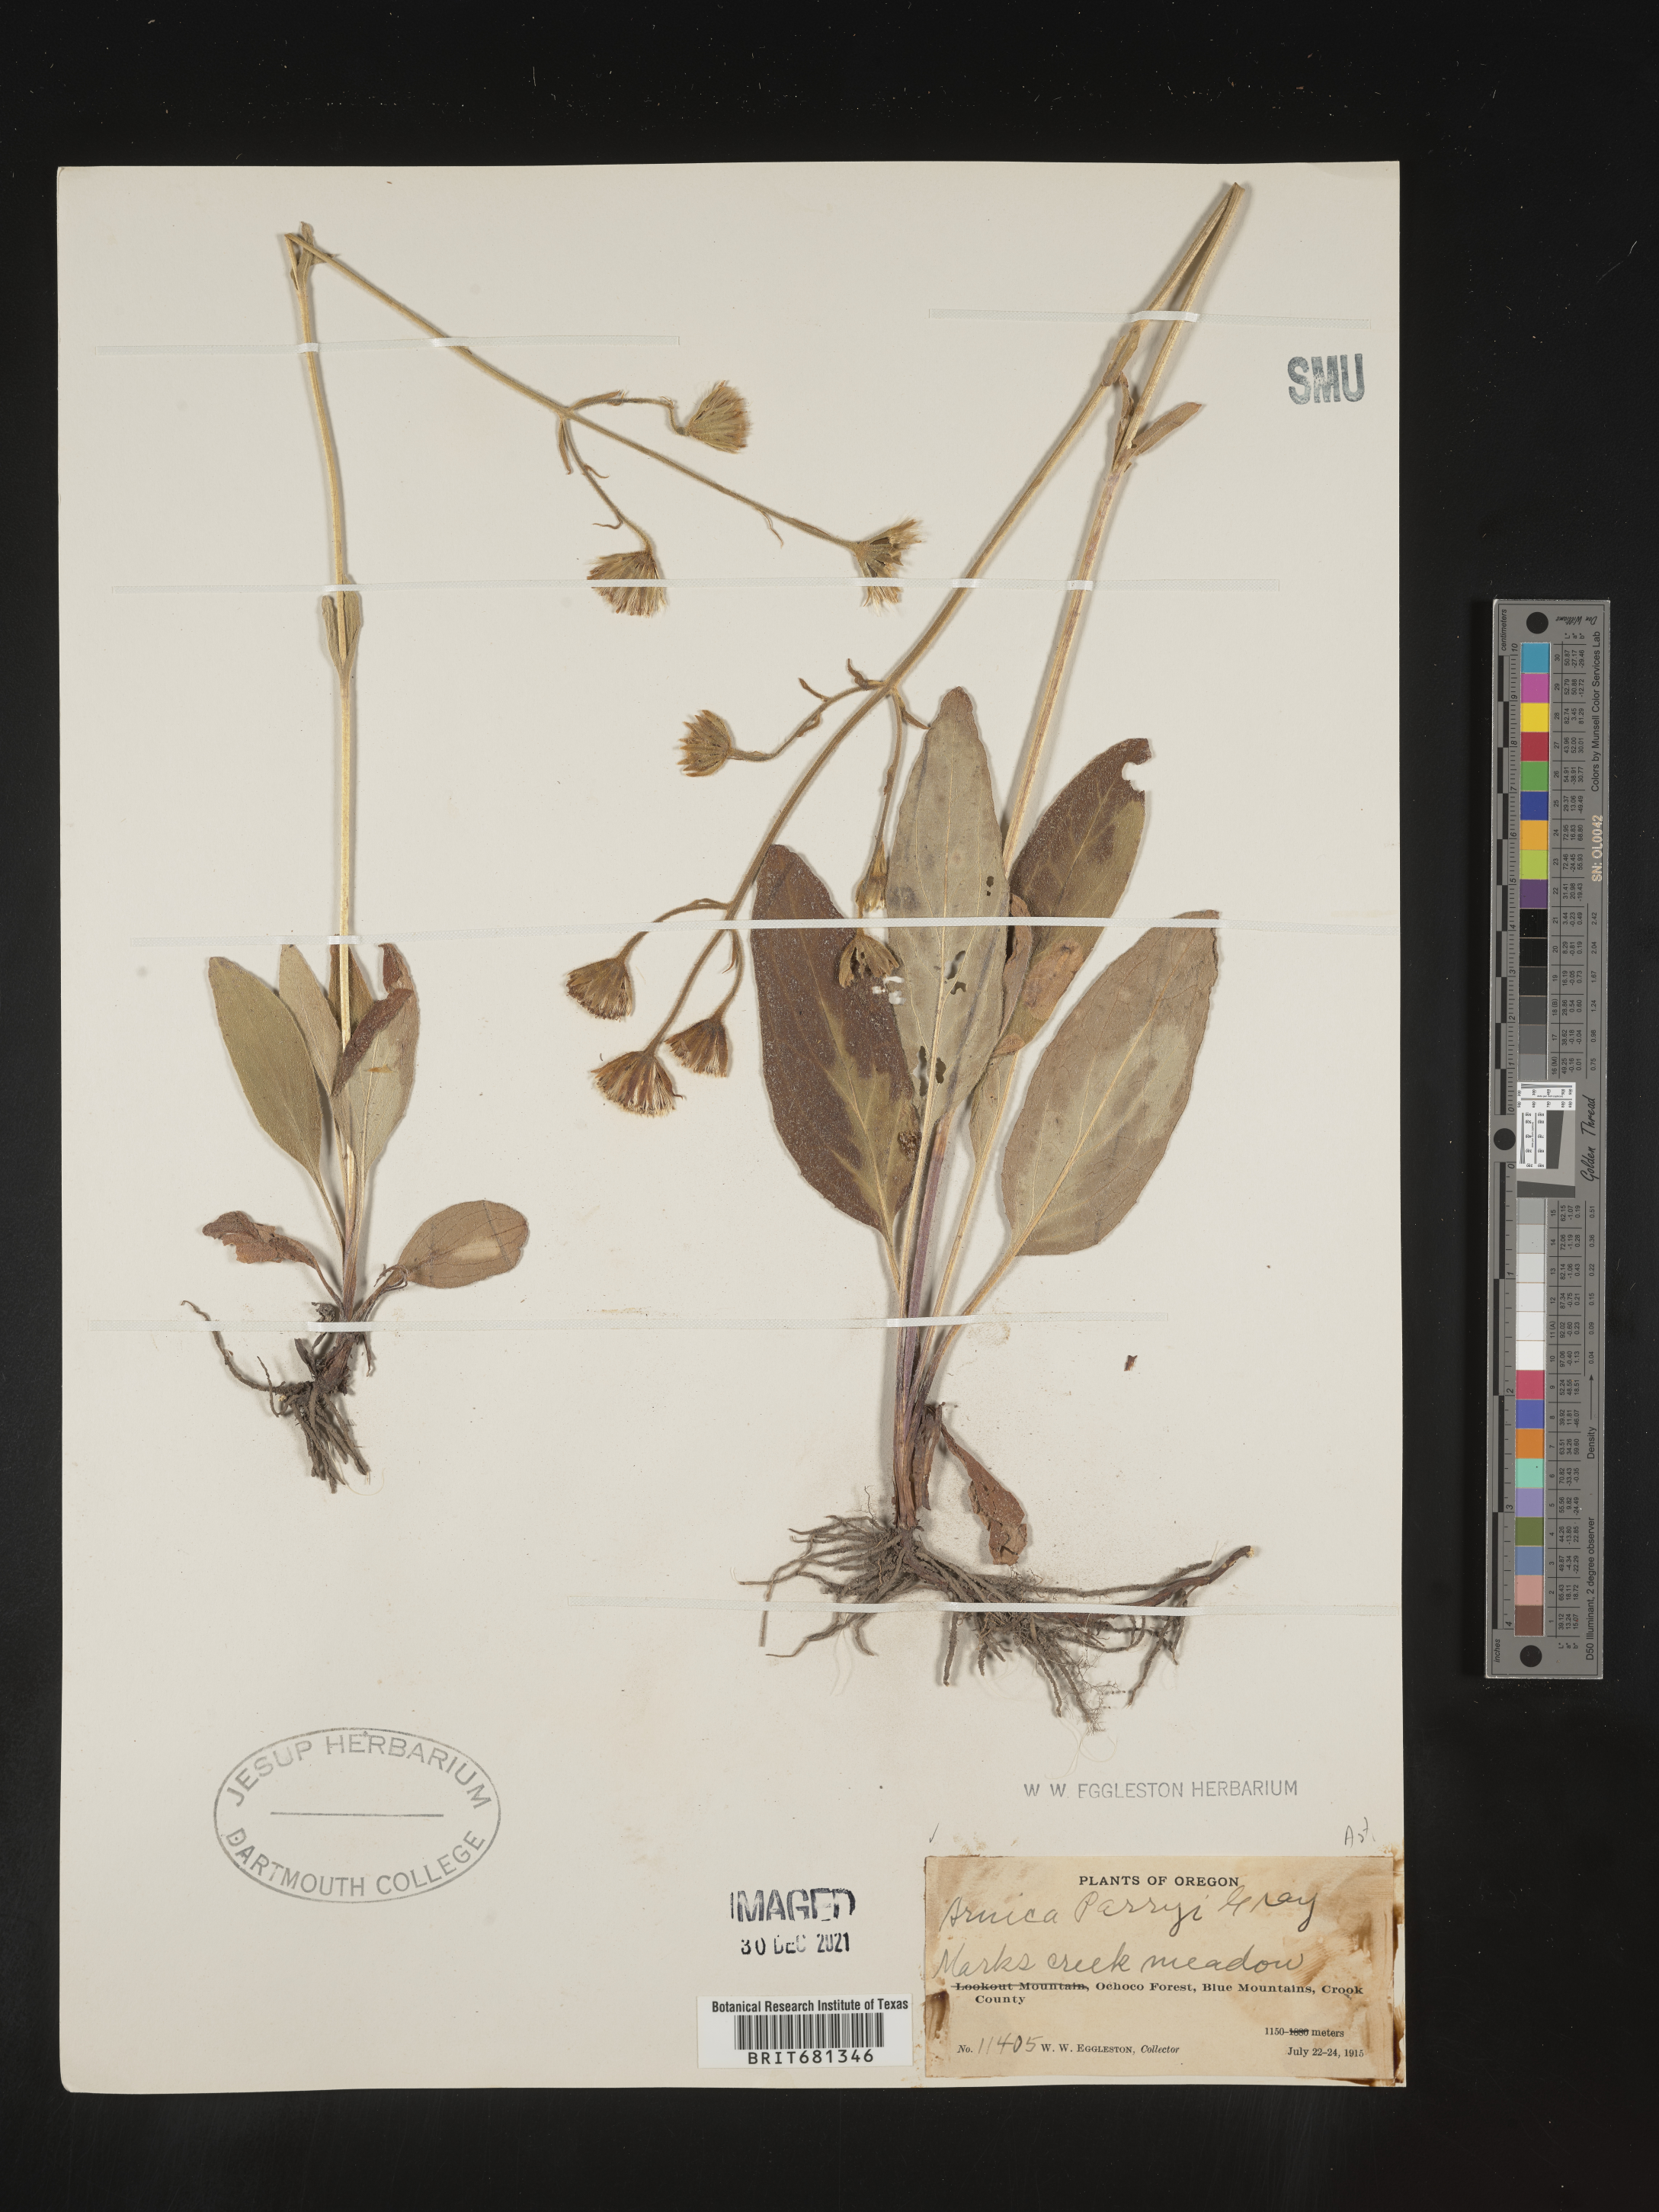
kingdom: Plantae
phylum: Tracheophyta
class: Magnoliopsida
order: Asterales
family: Asteraceae
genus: Arnica
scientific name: Arnica parryi
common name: Parry's arnica
